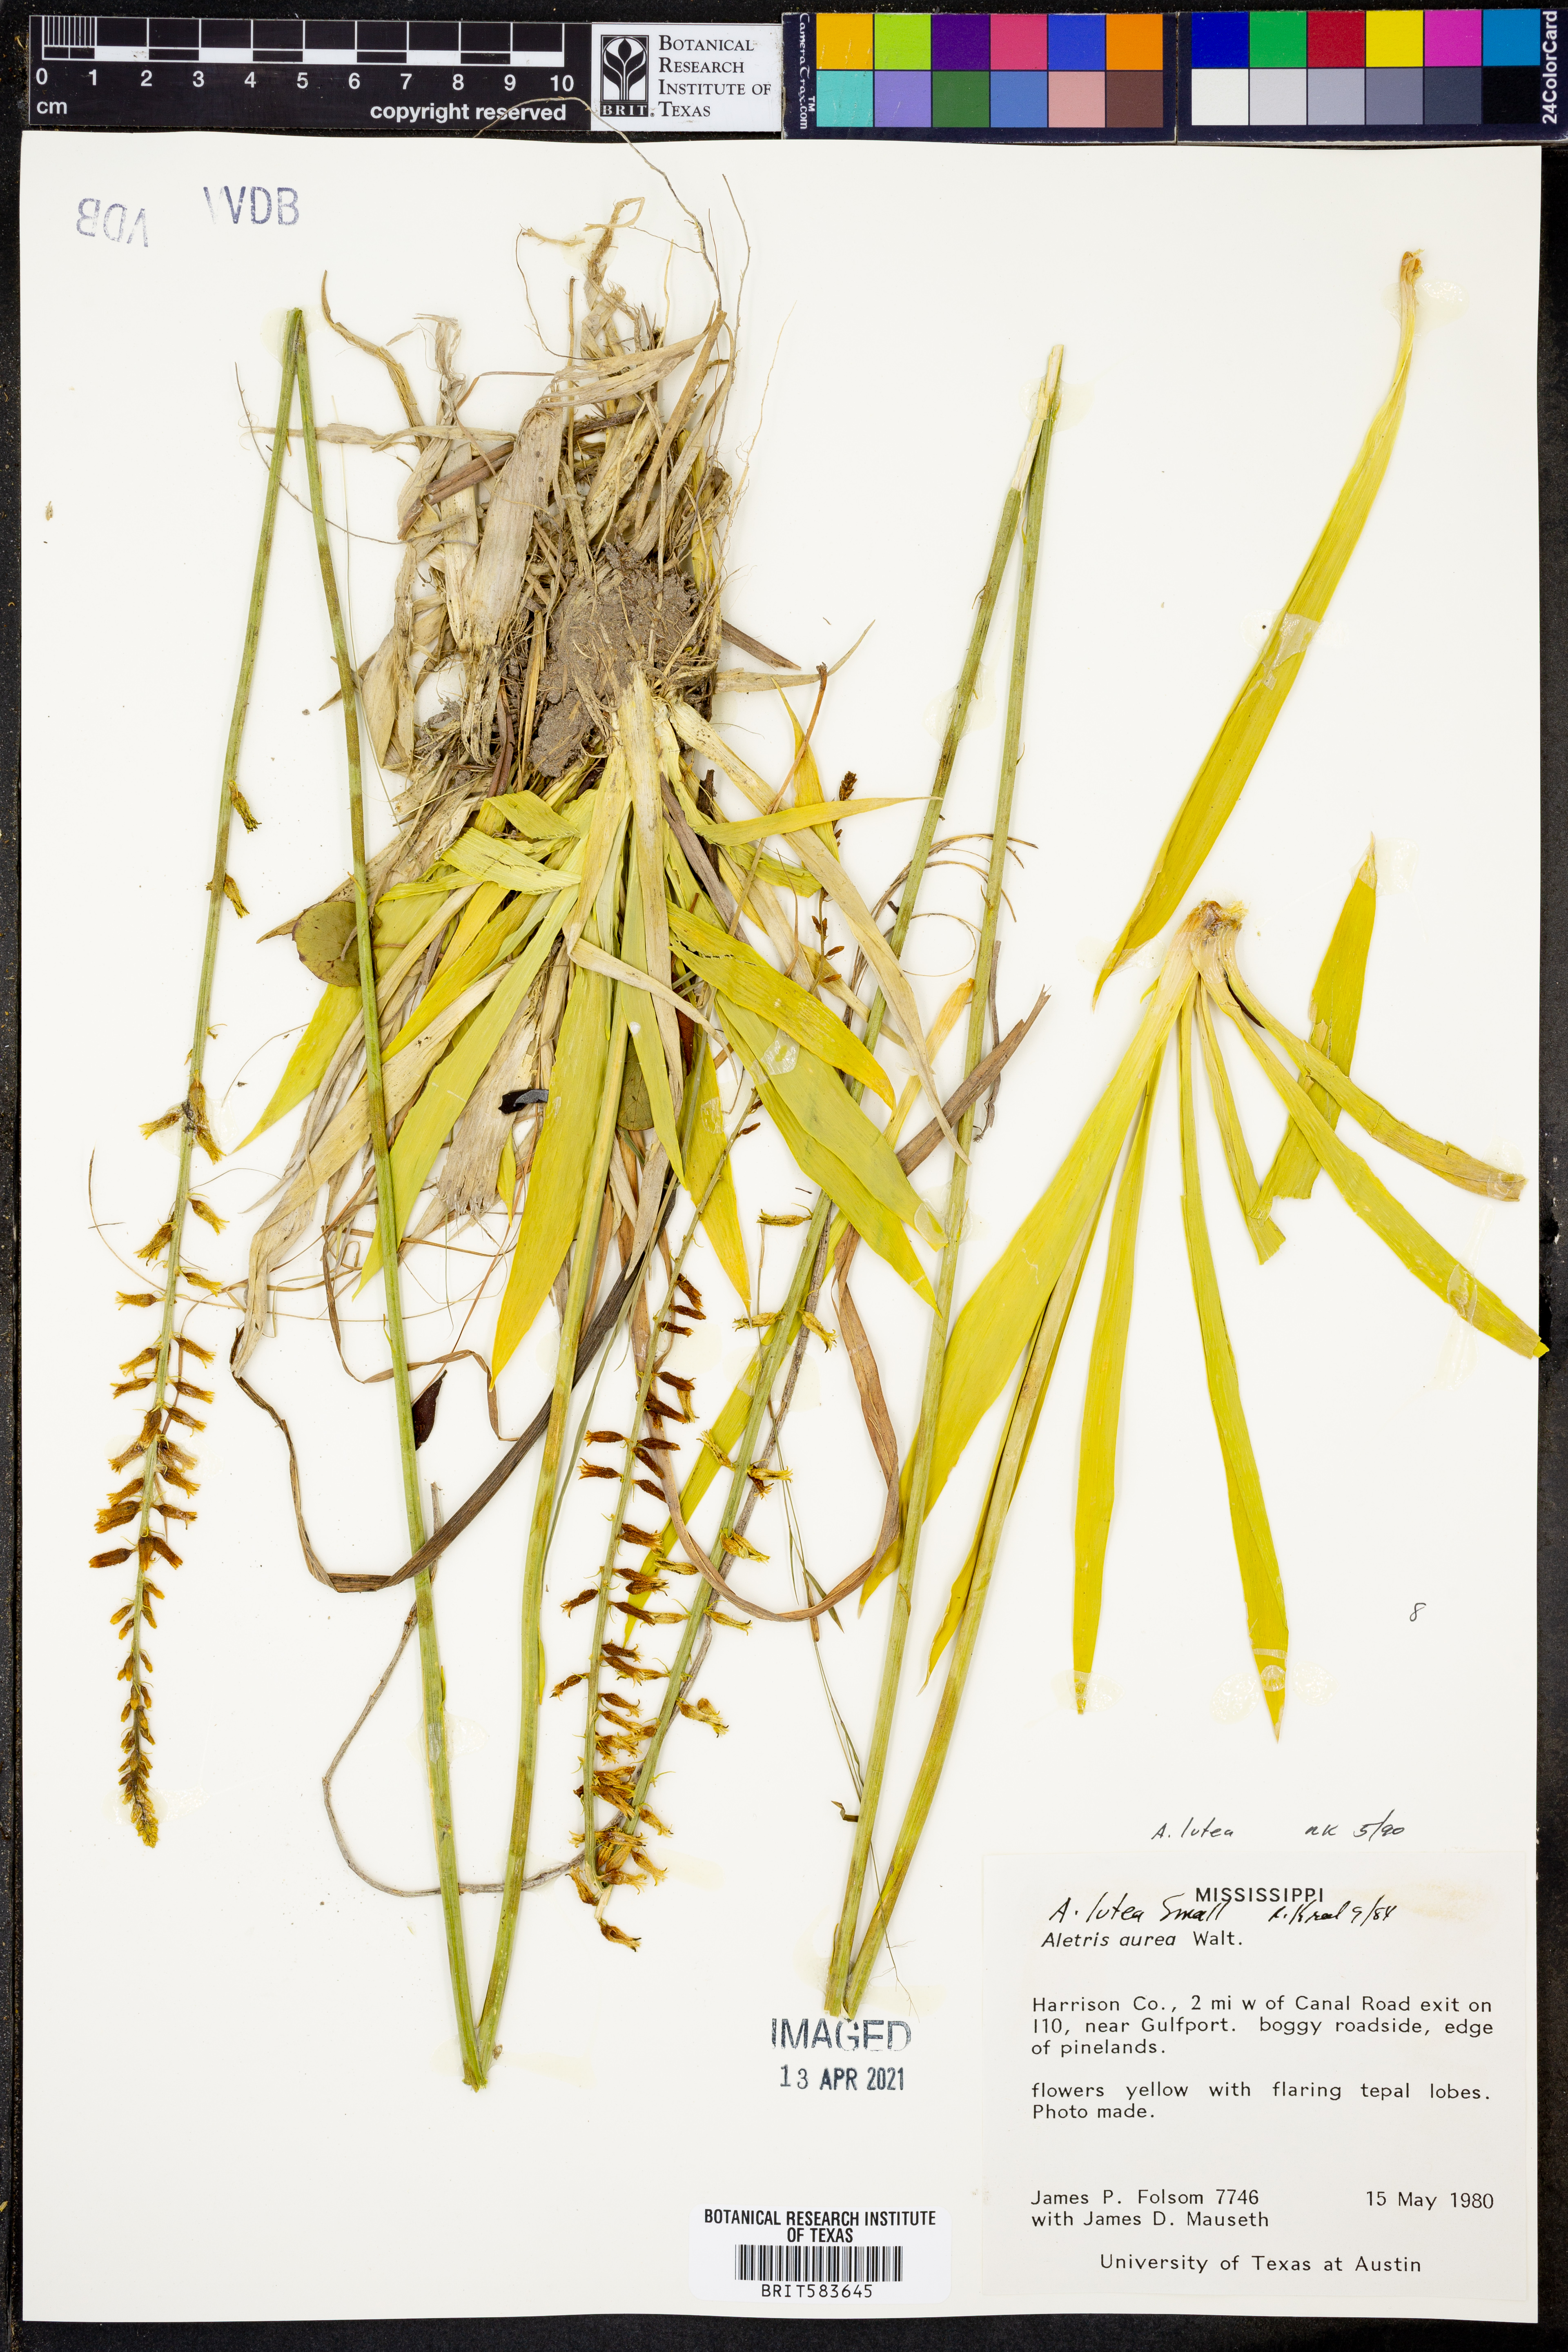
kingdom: Plantae
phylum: Tracheophyta
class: Liliopsida
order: Dioscoreales
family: Nartheciaceae
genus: Aletris
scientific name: Aletris lutea
